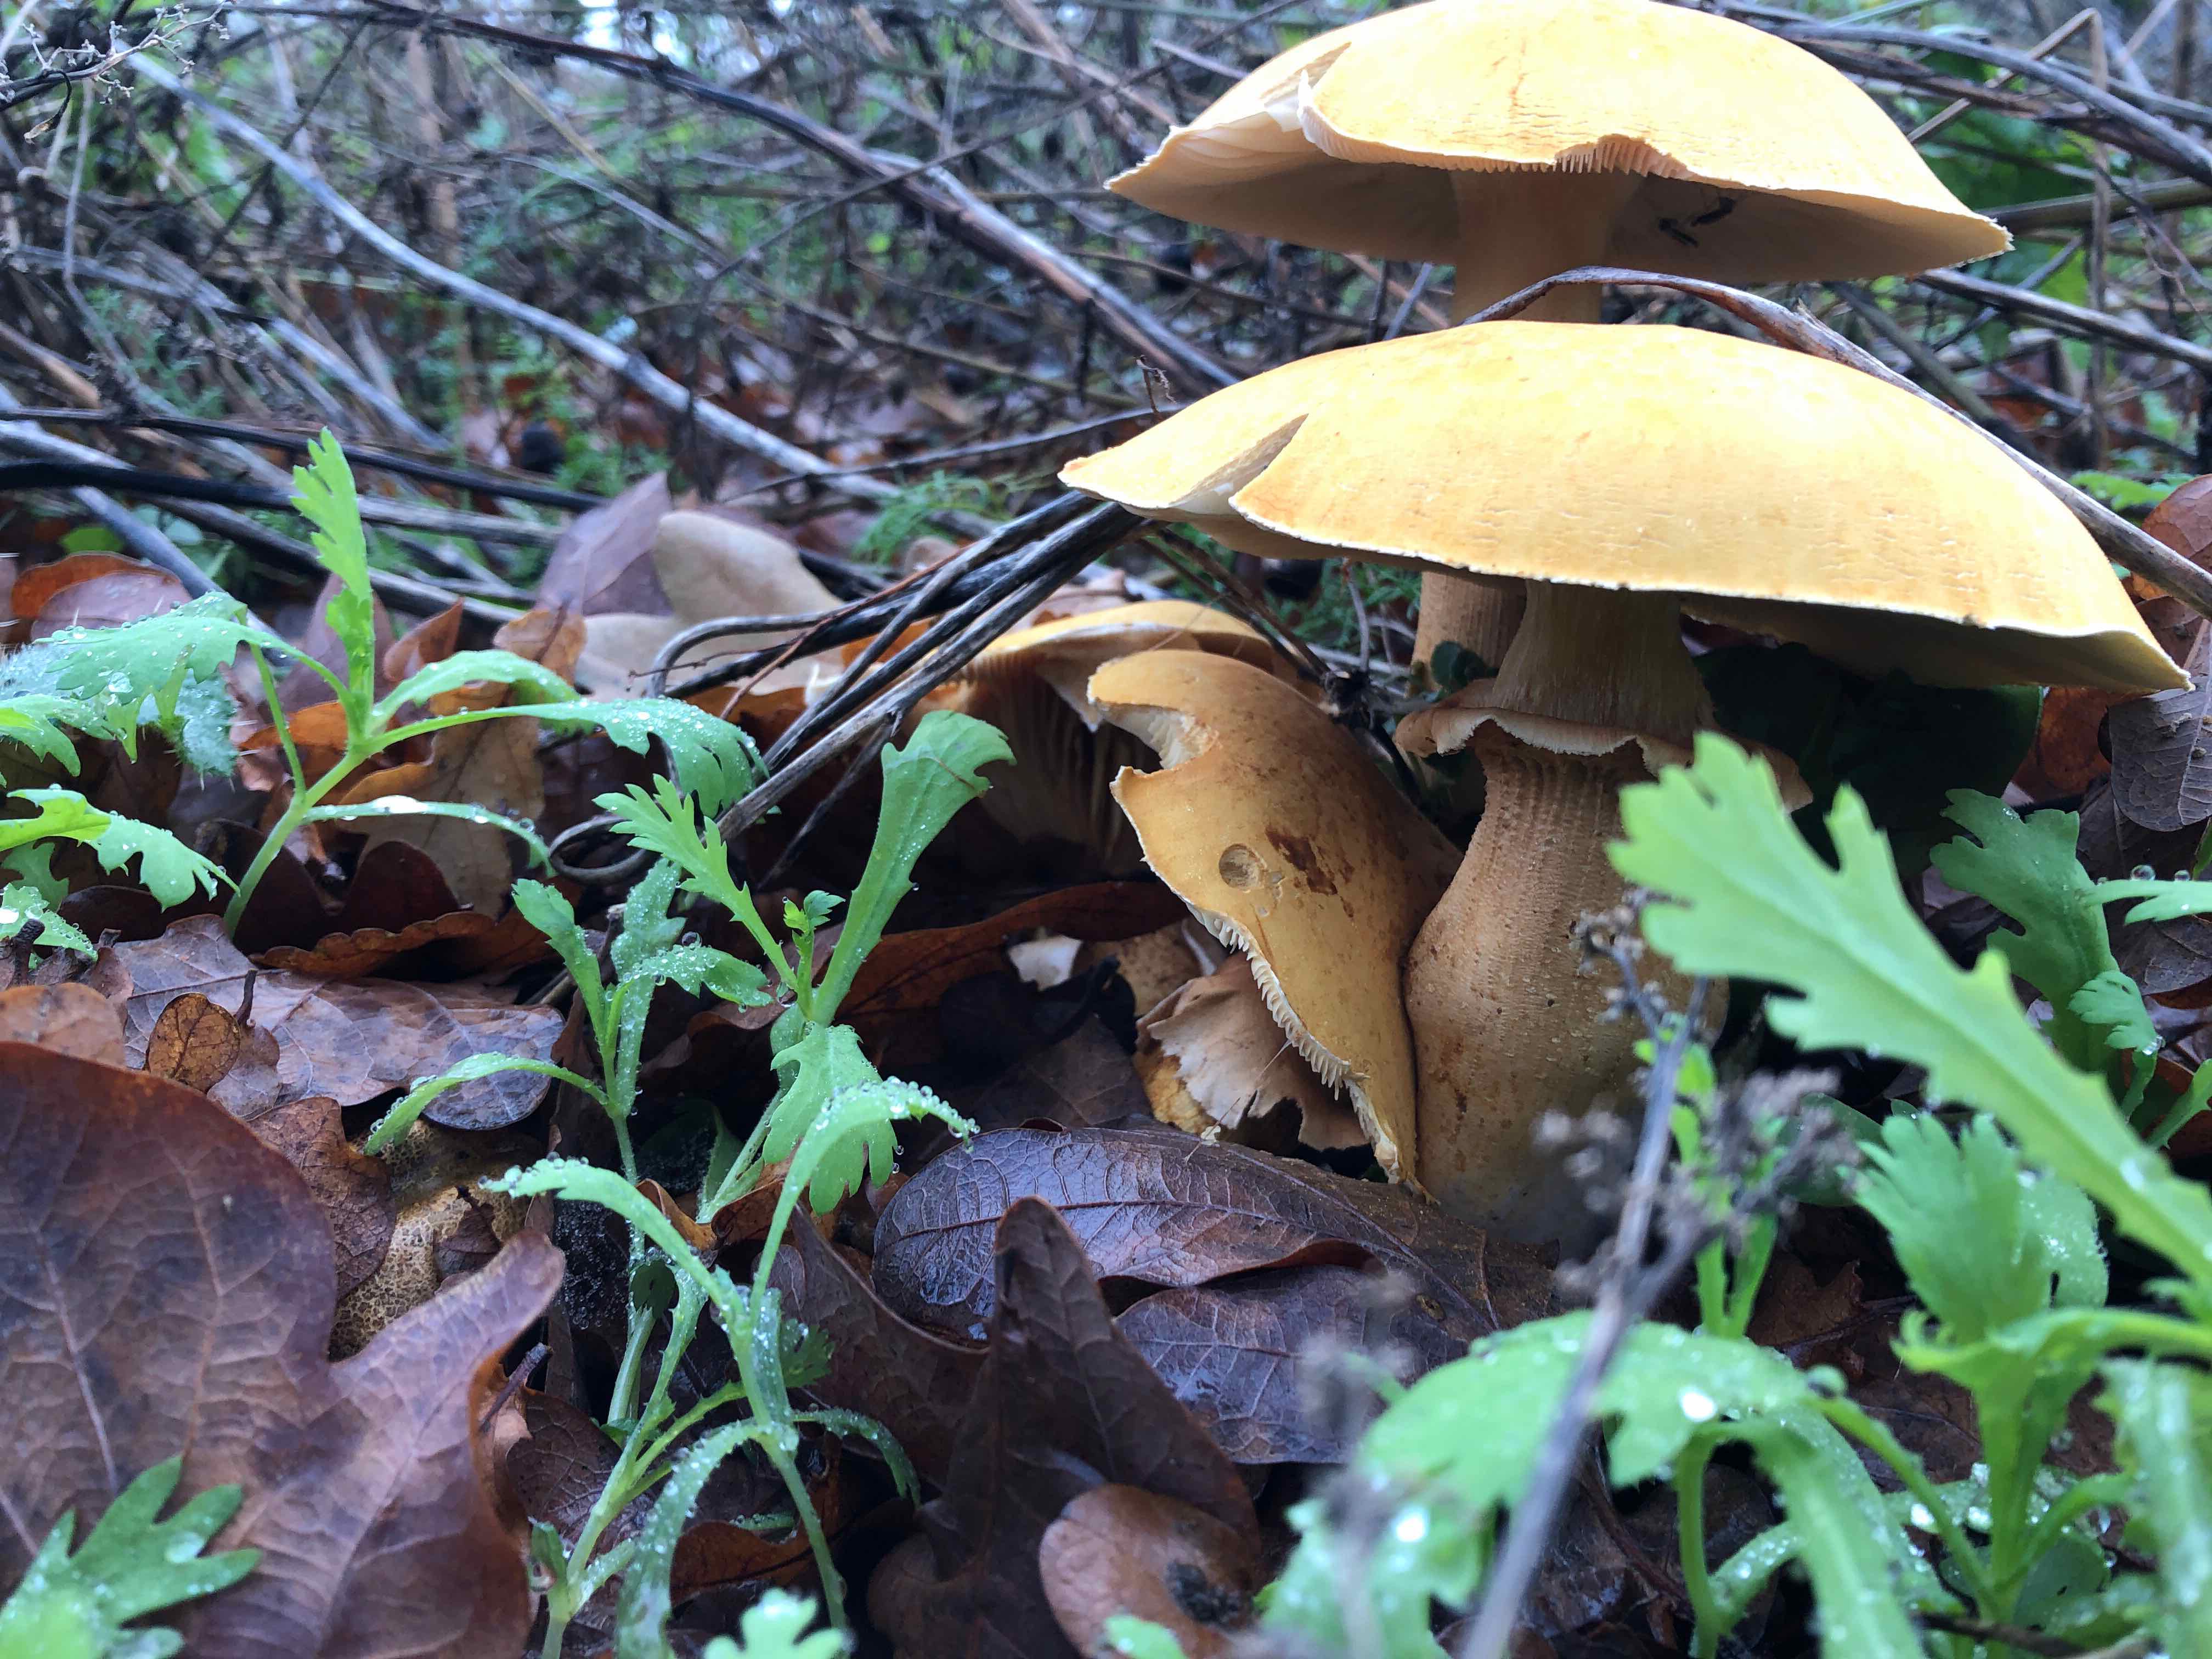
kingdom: Fungi
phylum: Basidiomycota
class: Agaricomycetes
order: Agaricales
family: Tricholomataceae
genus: Phaeolepiota
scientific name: Phaeolepiota aurea
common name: gyldenhat
